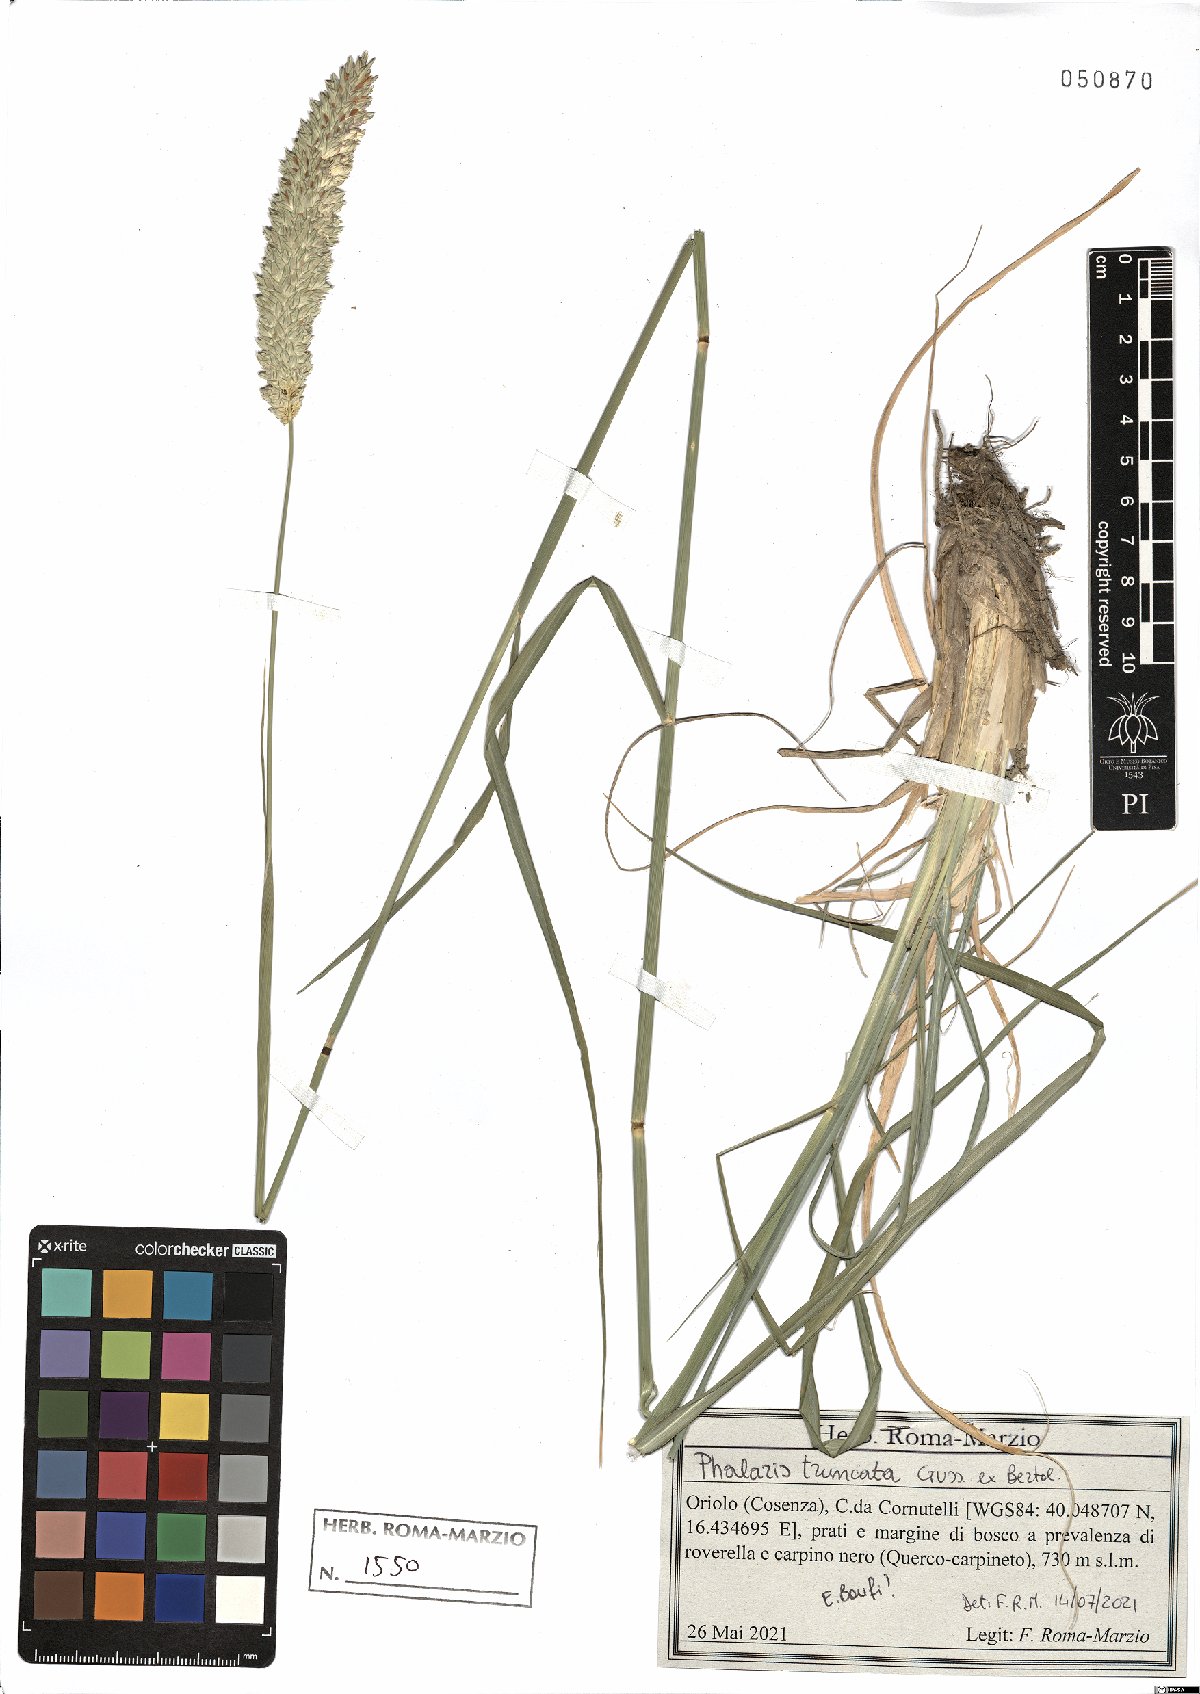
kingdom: Plantae
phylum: Tracheophyta
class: Liliopsida
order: Poales
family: Poaceae
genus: Phalaris
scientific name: Phalaris truncata
